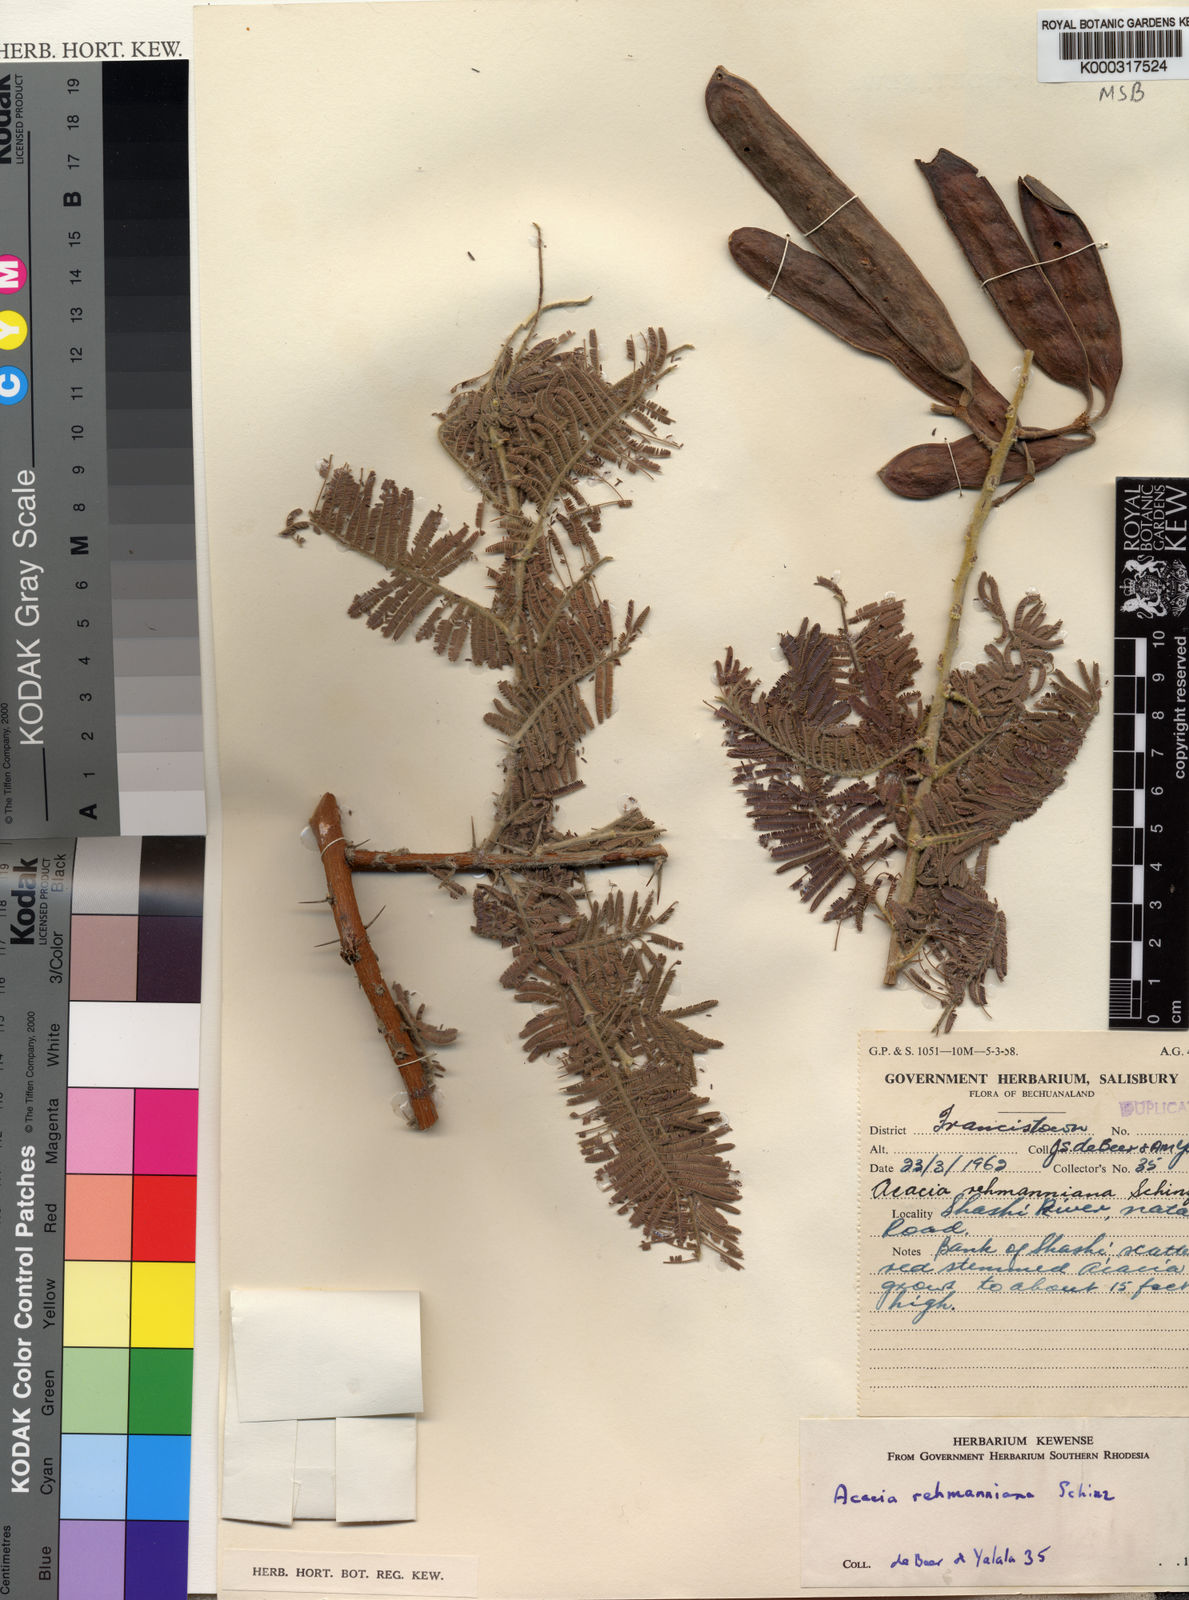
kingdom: Plantae
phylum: Tracheophyta
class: Magnoliopsida
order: Fabales
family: Fabaceae
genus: Vachellia
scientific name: Vachellia rehmanniana
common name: Silky thorn
